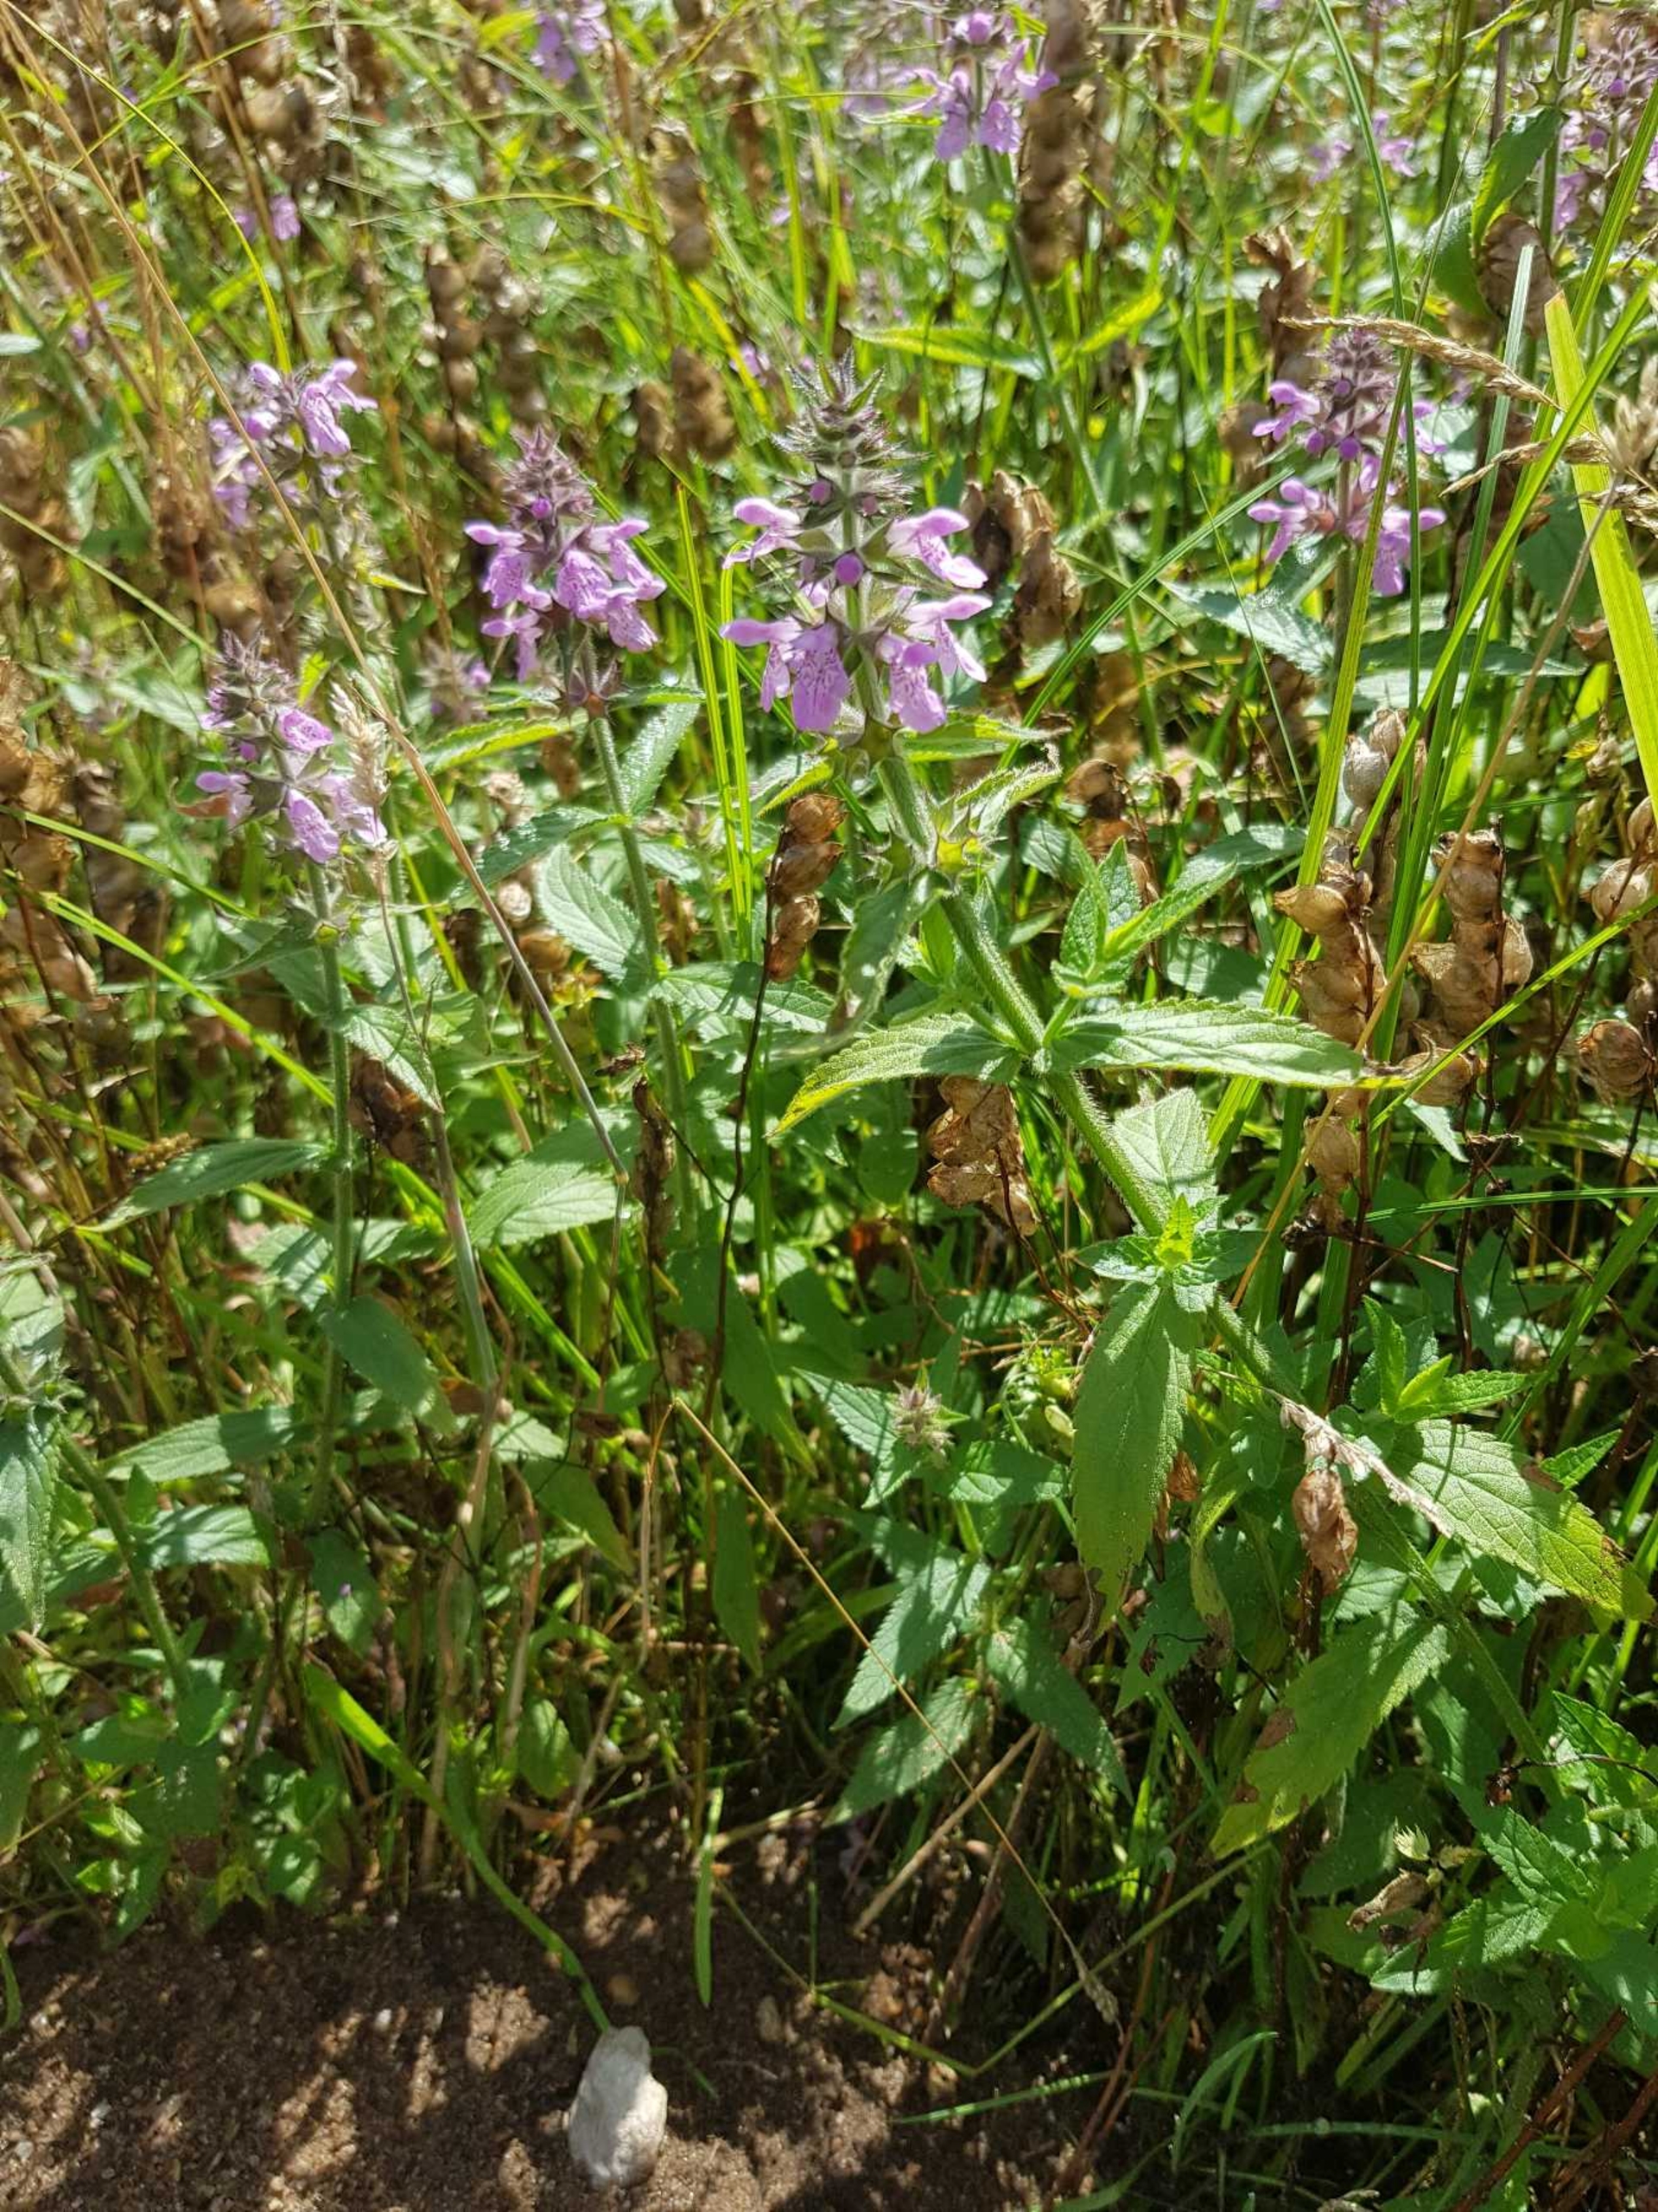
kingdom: Plantae
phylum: Tracheophyta
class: Magnoliopsida
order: Lamiales
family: Lamiaceae
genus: Stachys
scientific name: Stachys palustris
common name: Kær-galtetand
